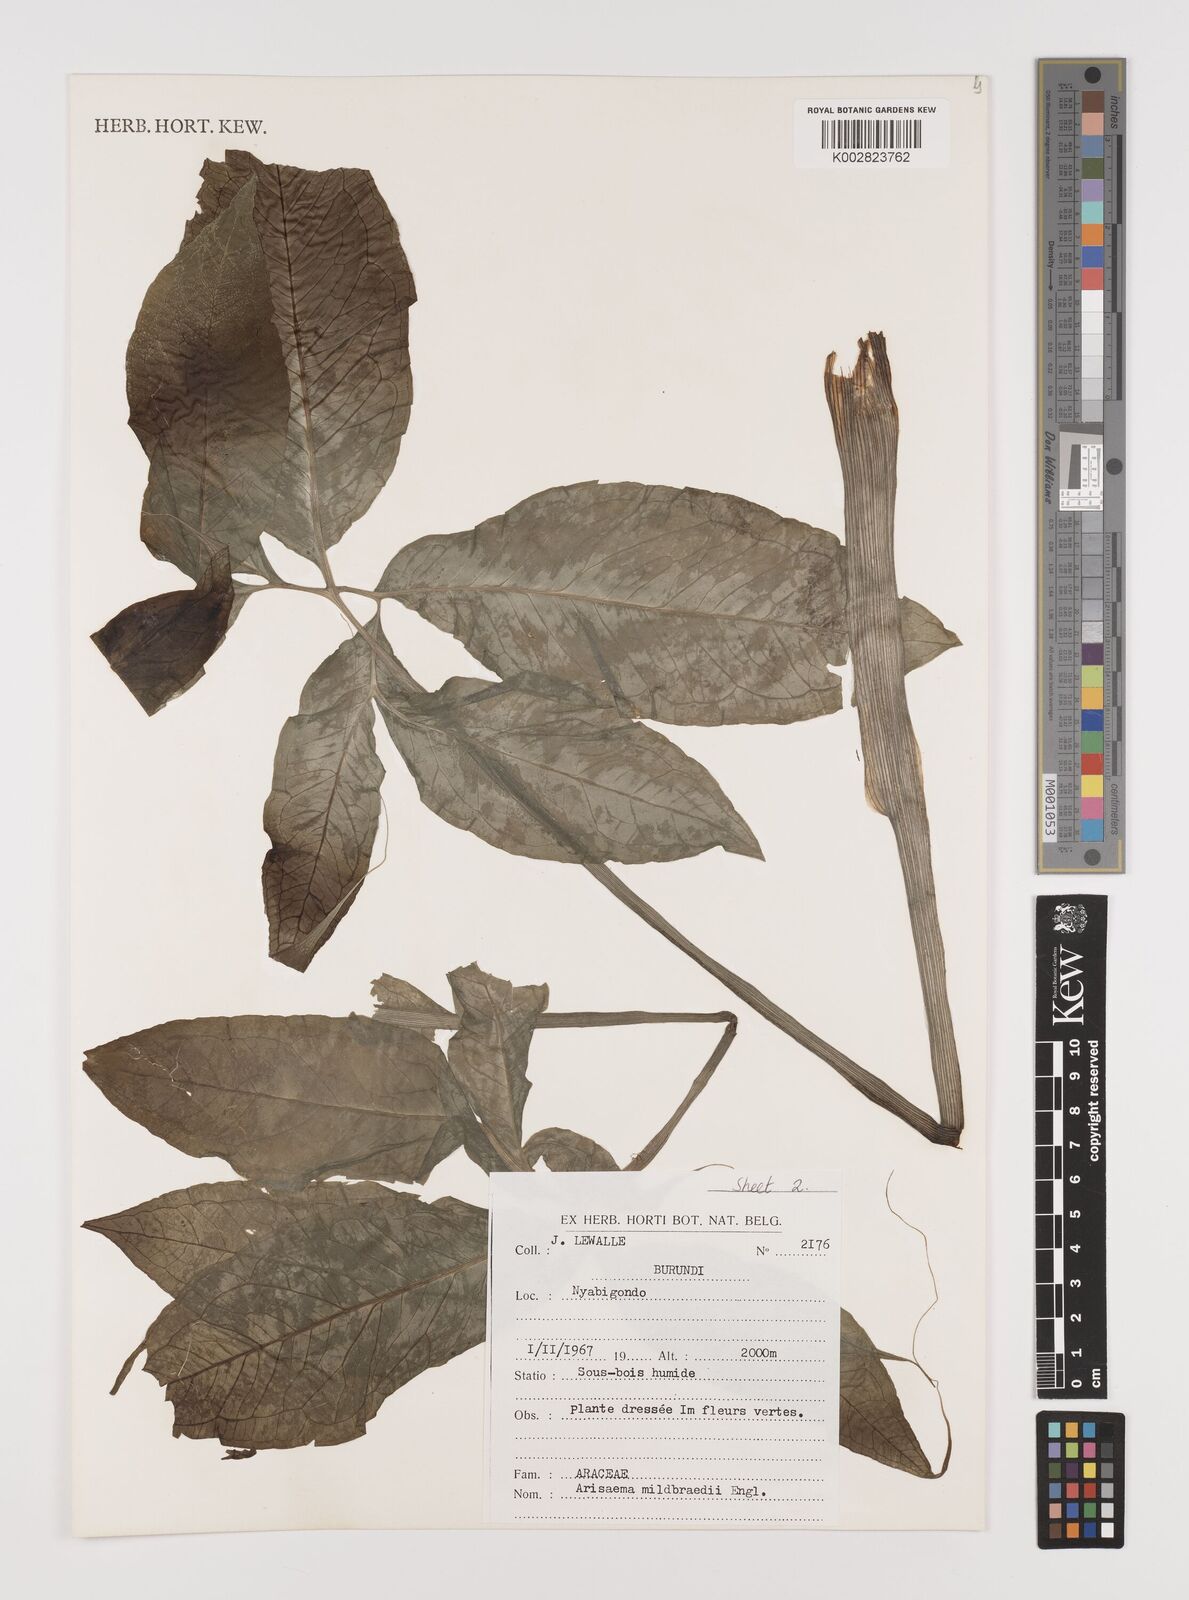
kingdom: Plantae
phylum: Tracheophyta
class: Liliopsida
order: Alismatales
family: Araceae
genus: Arisaema
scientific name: Arisaema mildbraedii
